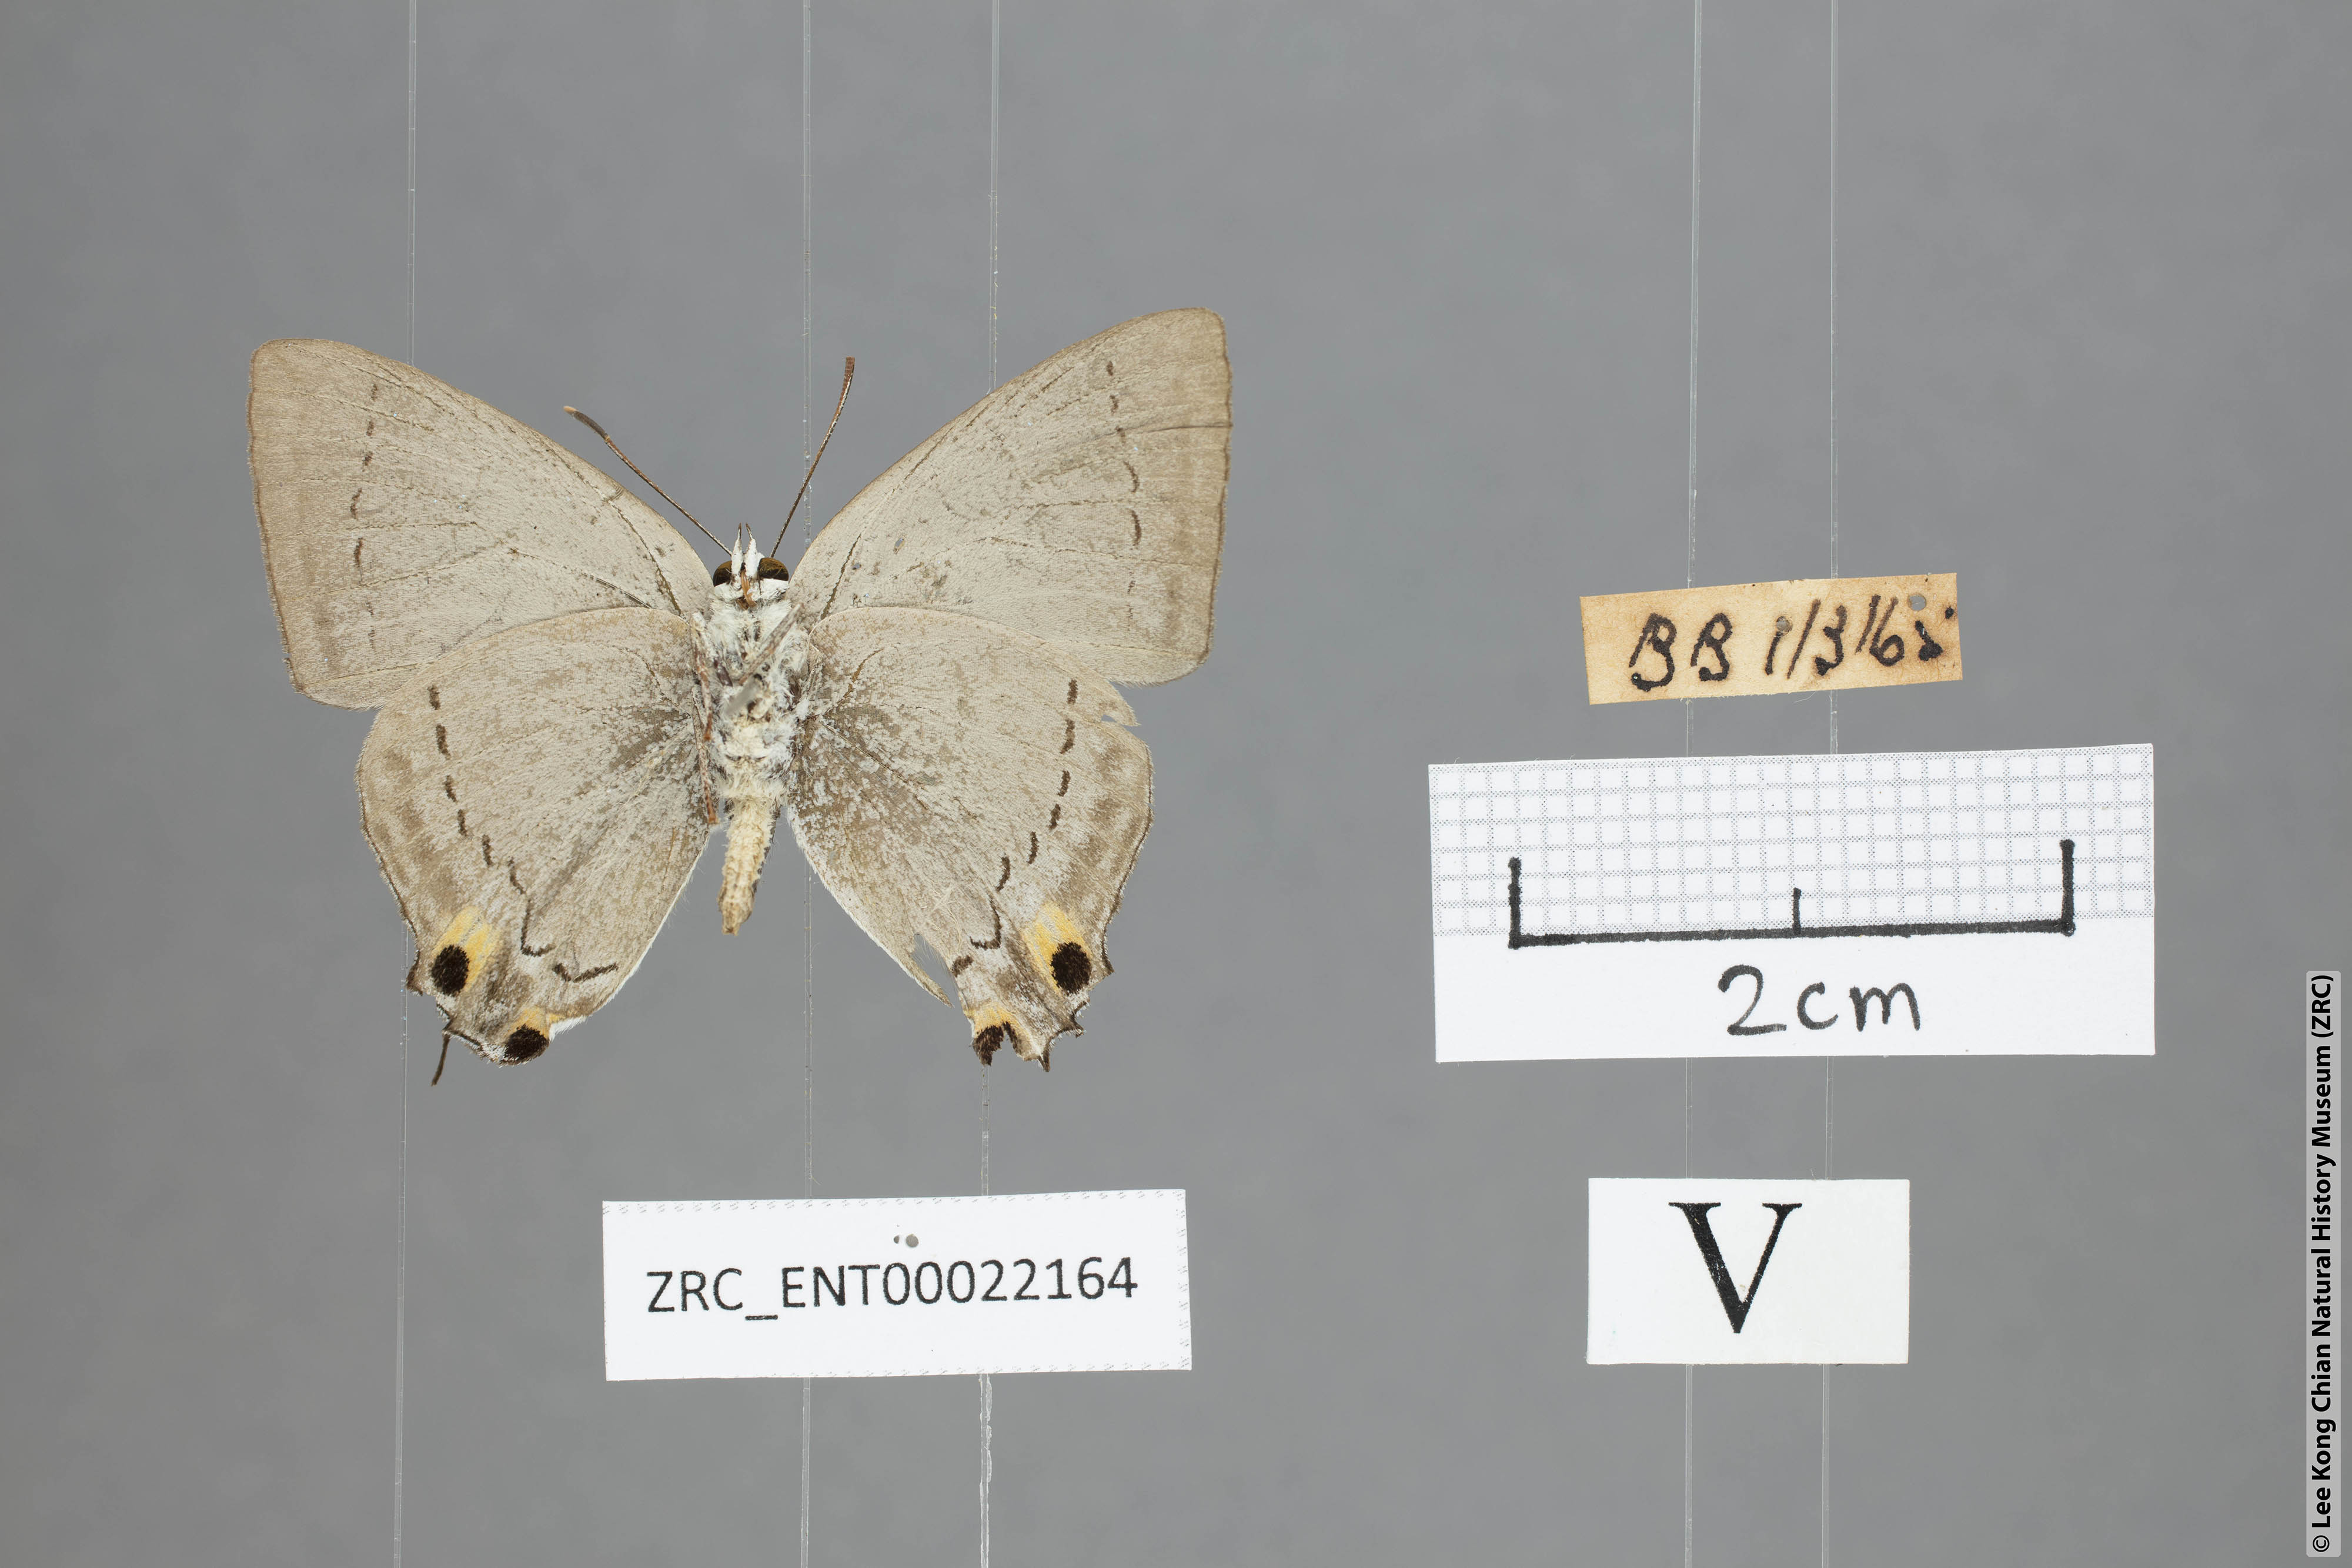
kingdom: Animalia
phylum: Arthropoda
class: Insecta
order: Lepidoptera
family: Lycaenidae
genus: Tajuria
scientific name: Tajuria cippus
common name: Peacock royal
